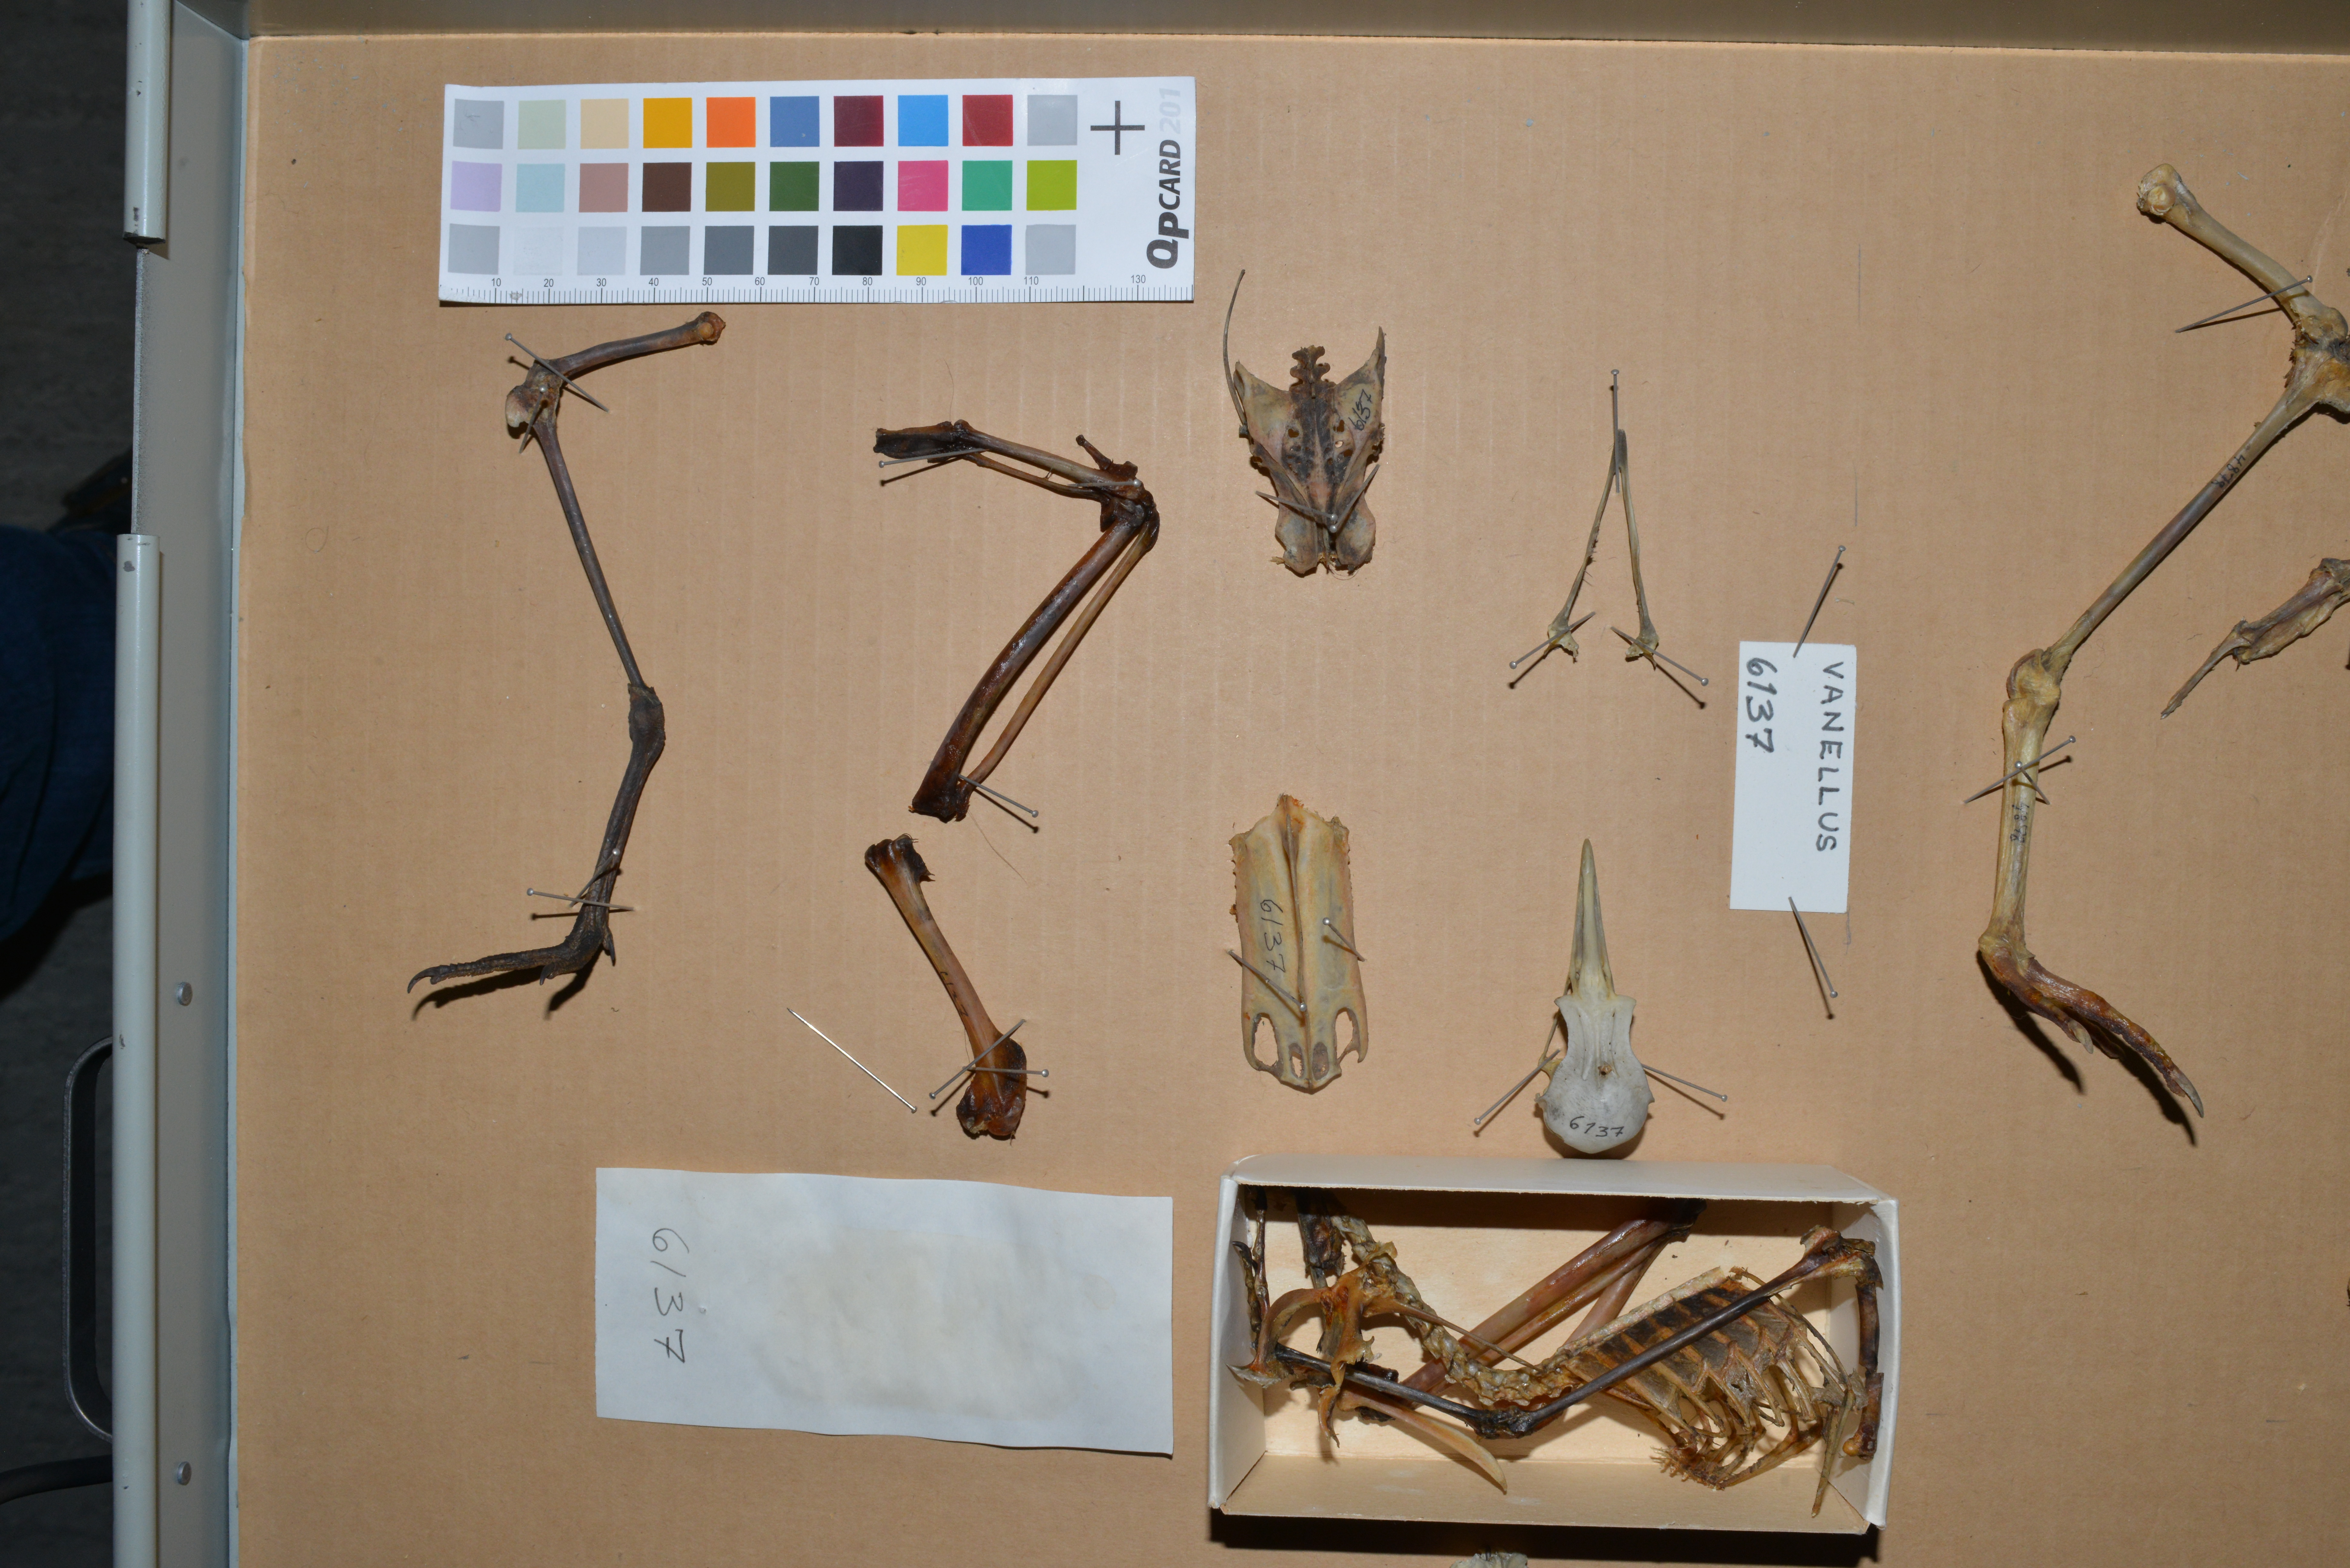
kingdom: Animalia
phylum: Chordata
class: Aves
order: Charadriiformes
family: Charadriidae
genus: Vanellus
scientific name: Vanellus vanellus
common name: Northern lapwing
